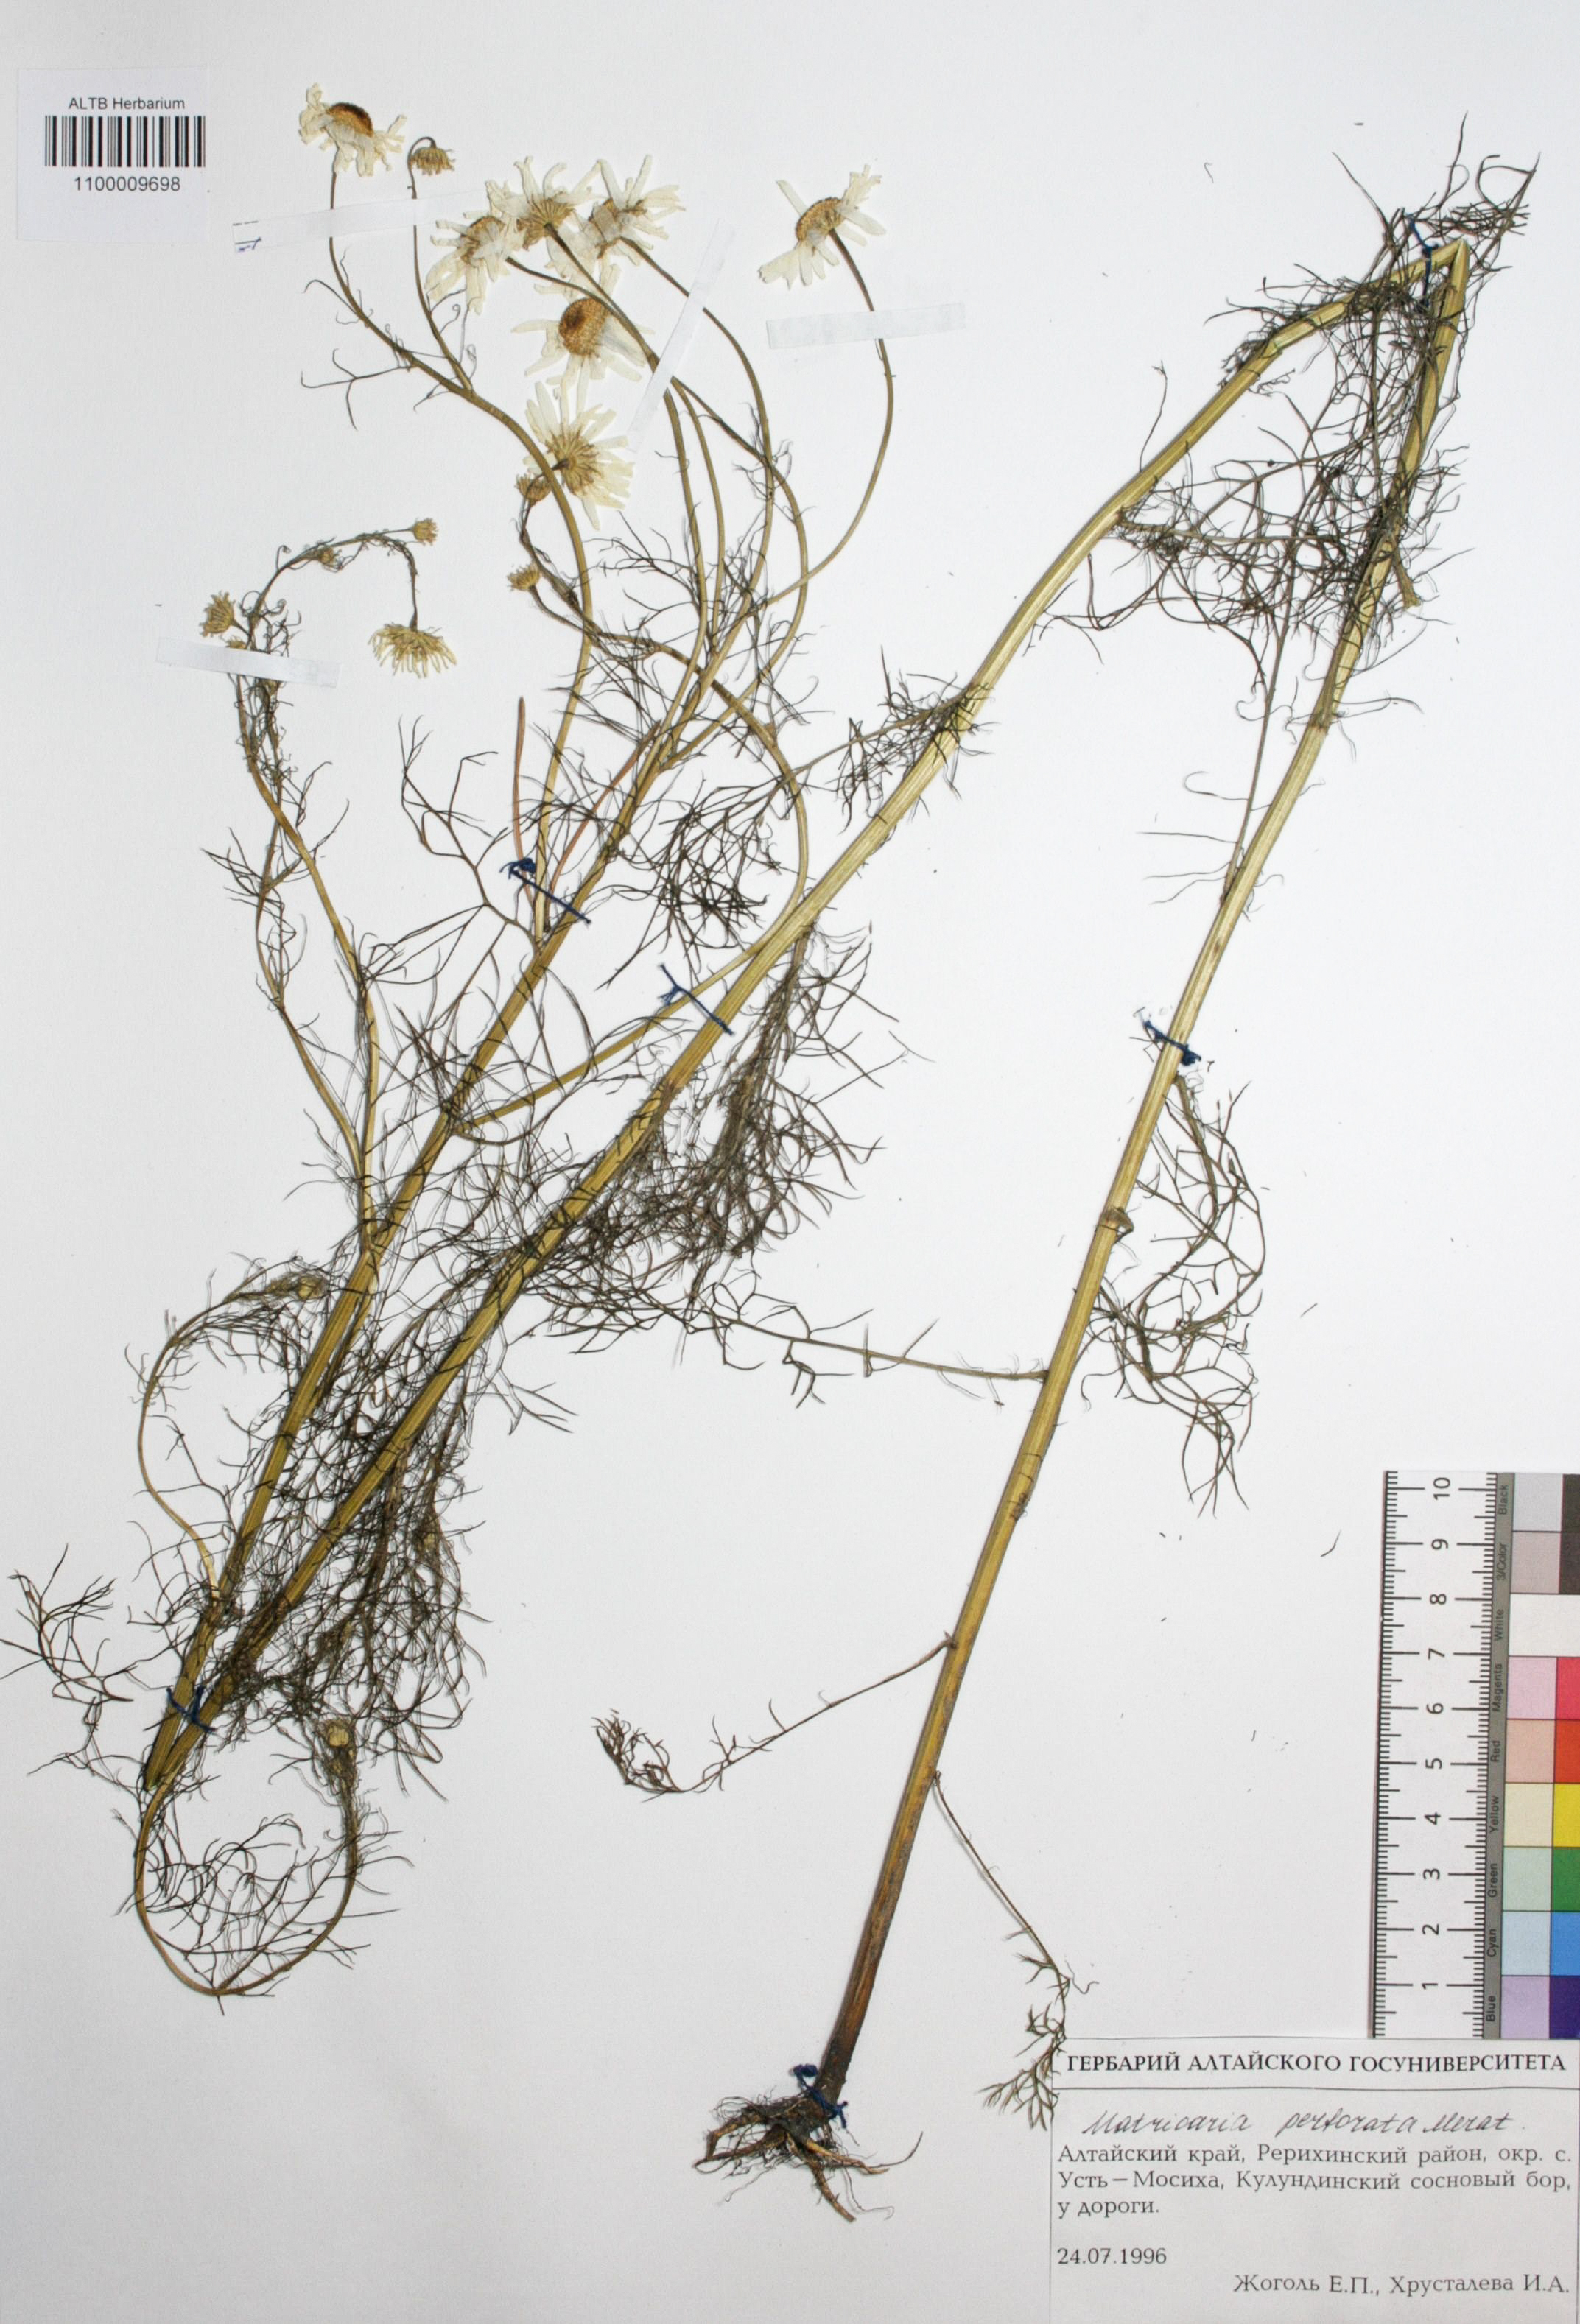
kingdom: Plantae
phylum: Tracheophyta
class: Magnoliopsida
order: Asterales
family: Asteraceae
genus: Tripleurospermum
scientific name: Tripleurospermum inodorum
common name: Scentless mayweed
